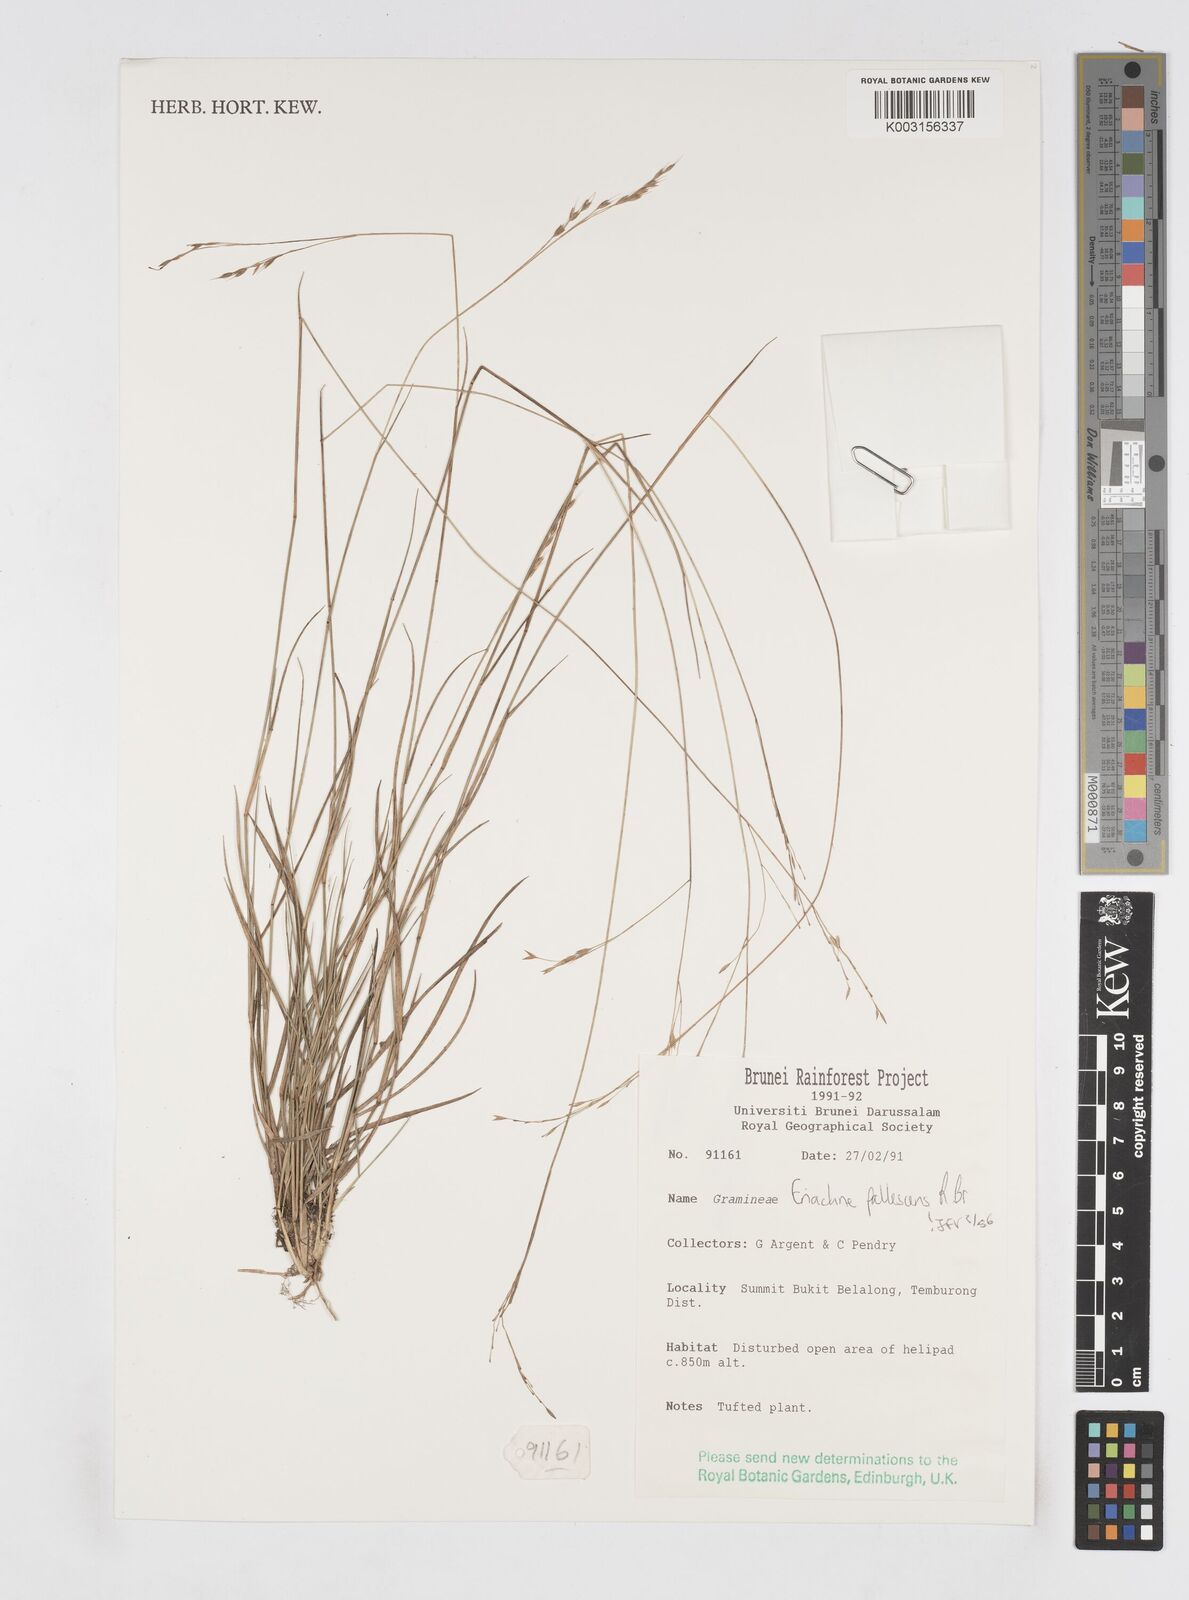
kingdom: Plantae
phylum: Tracheophyta
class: Liliopsida
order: Poales
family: Poaceae
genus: Eriachne
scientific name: Eriachne pallescens
